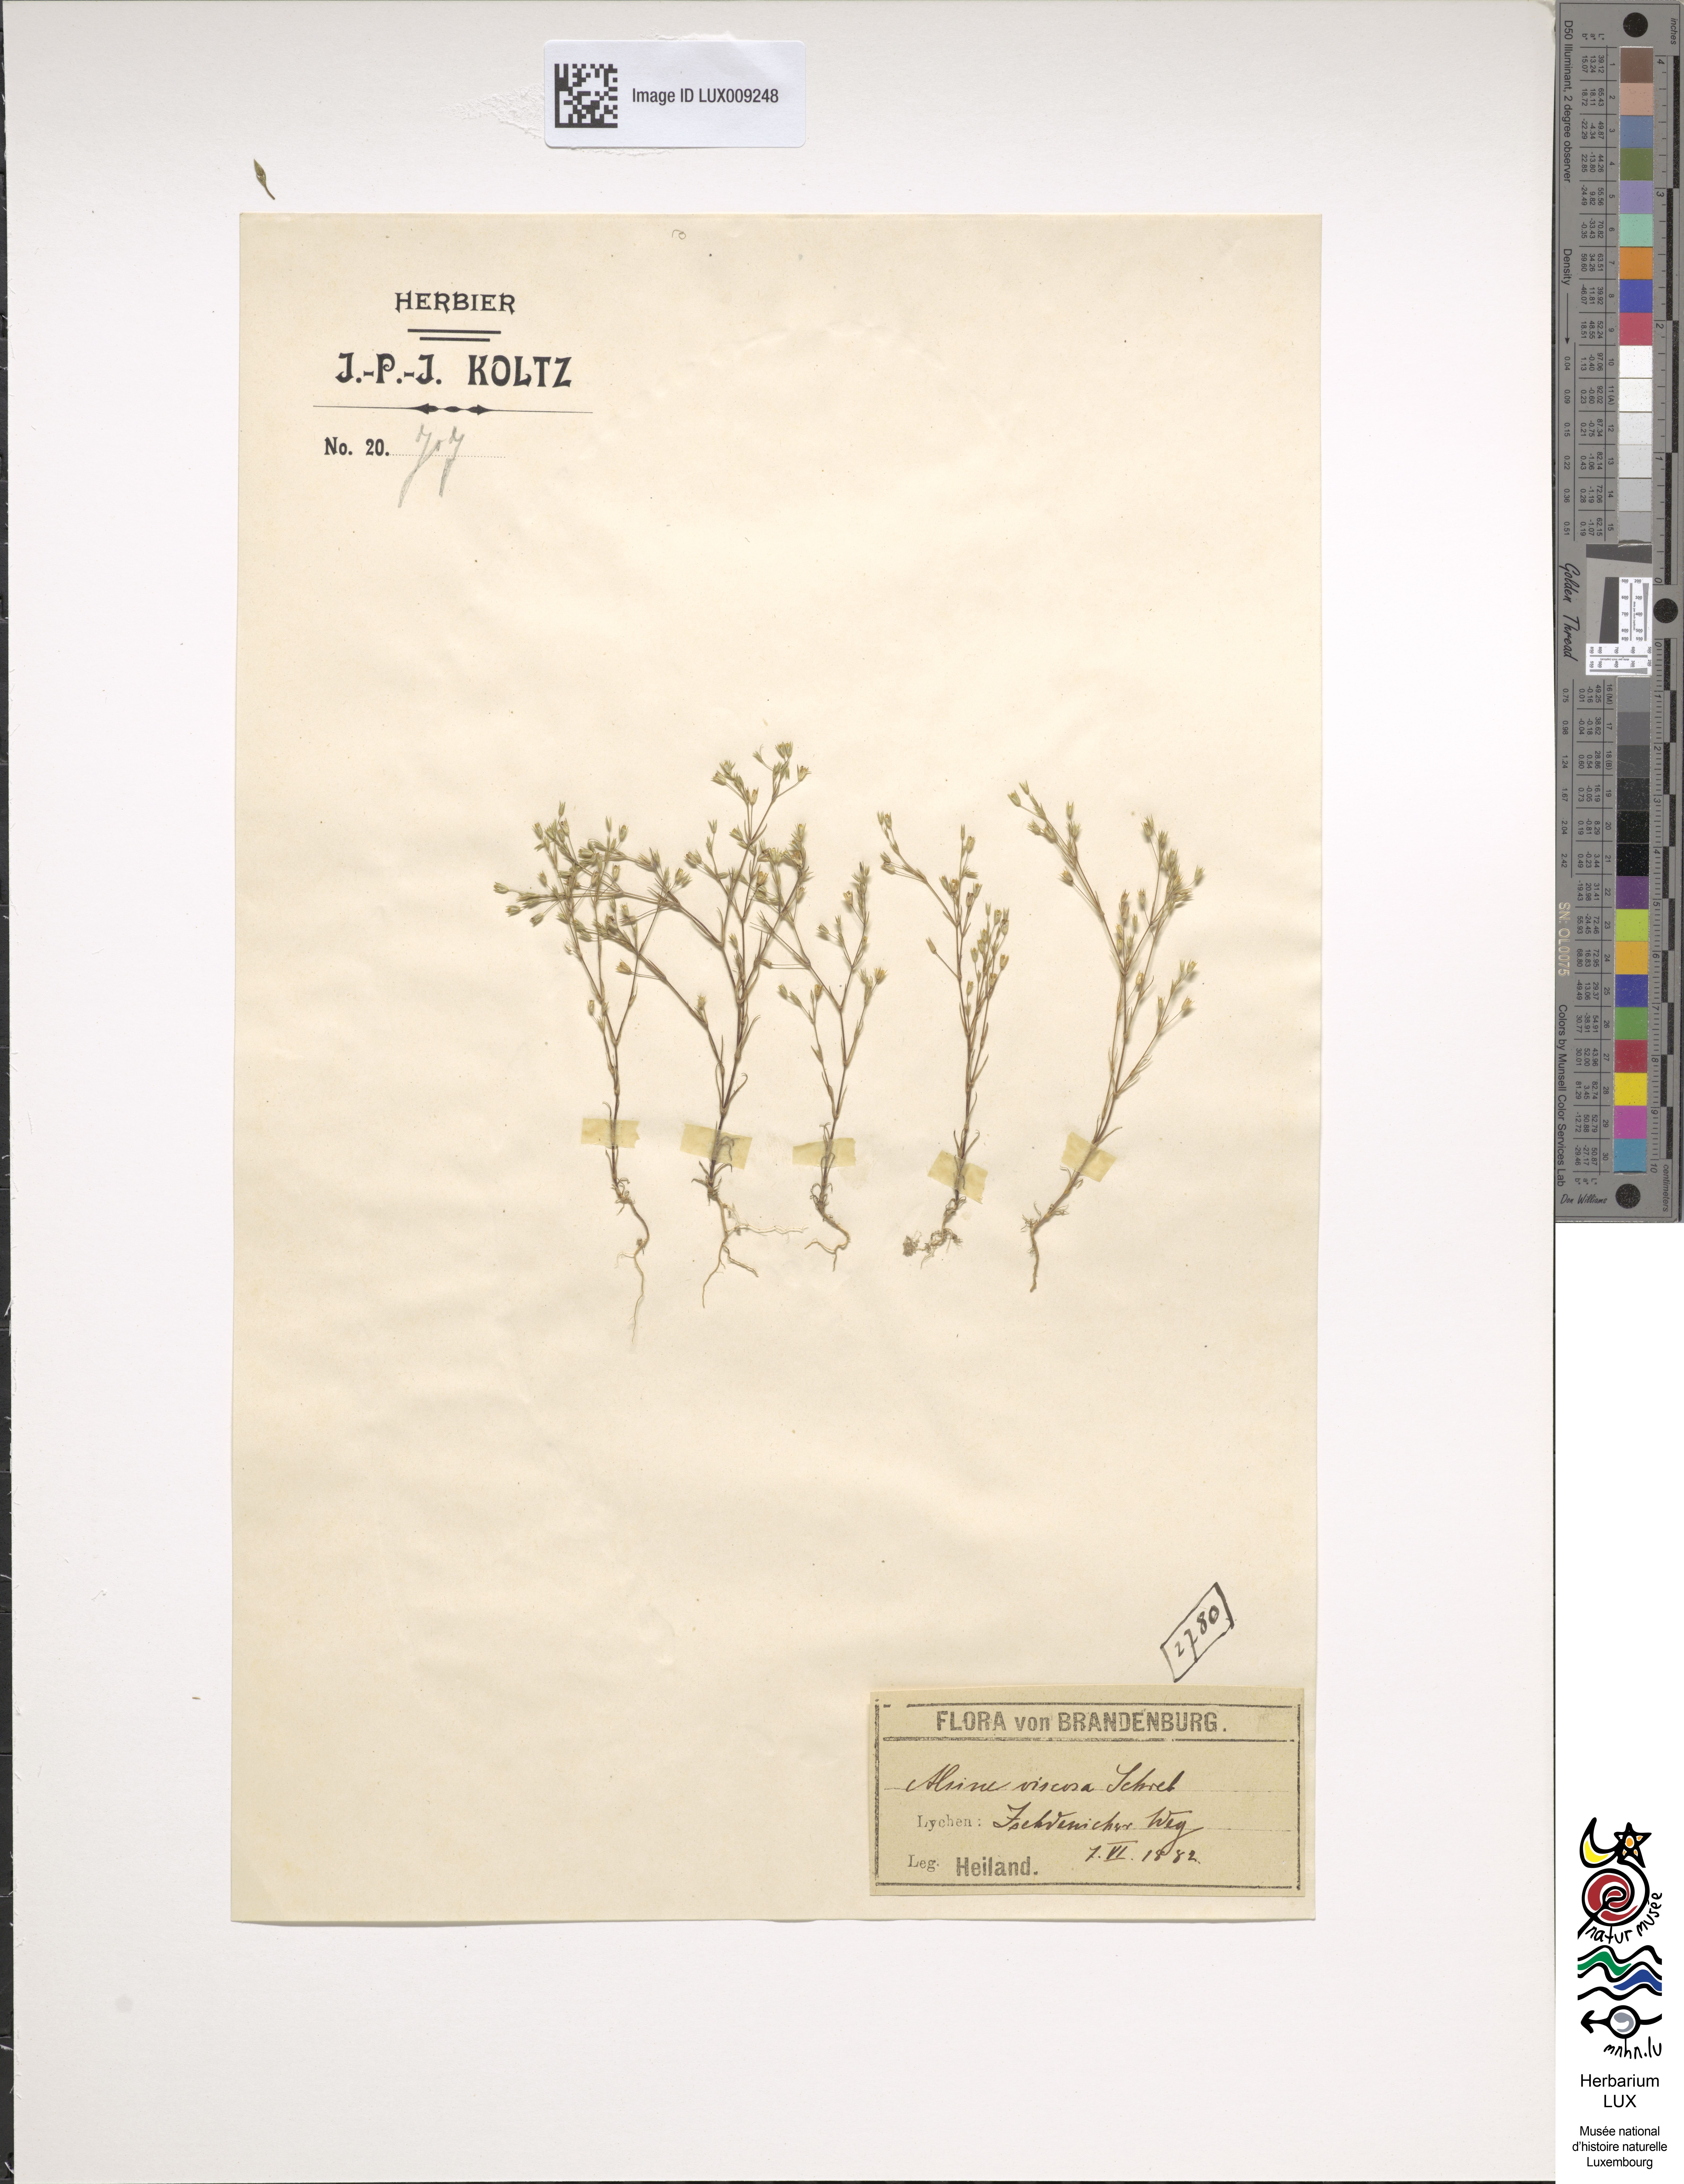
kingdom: Plantae
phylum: Tracheophyta
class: Magnoliopsida
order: Caryophyllales
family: Caryophyllaceae
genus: Sabulina
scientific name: Sabulina viscosa
